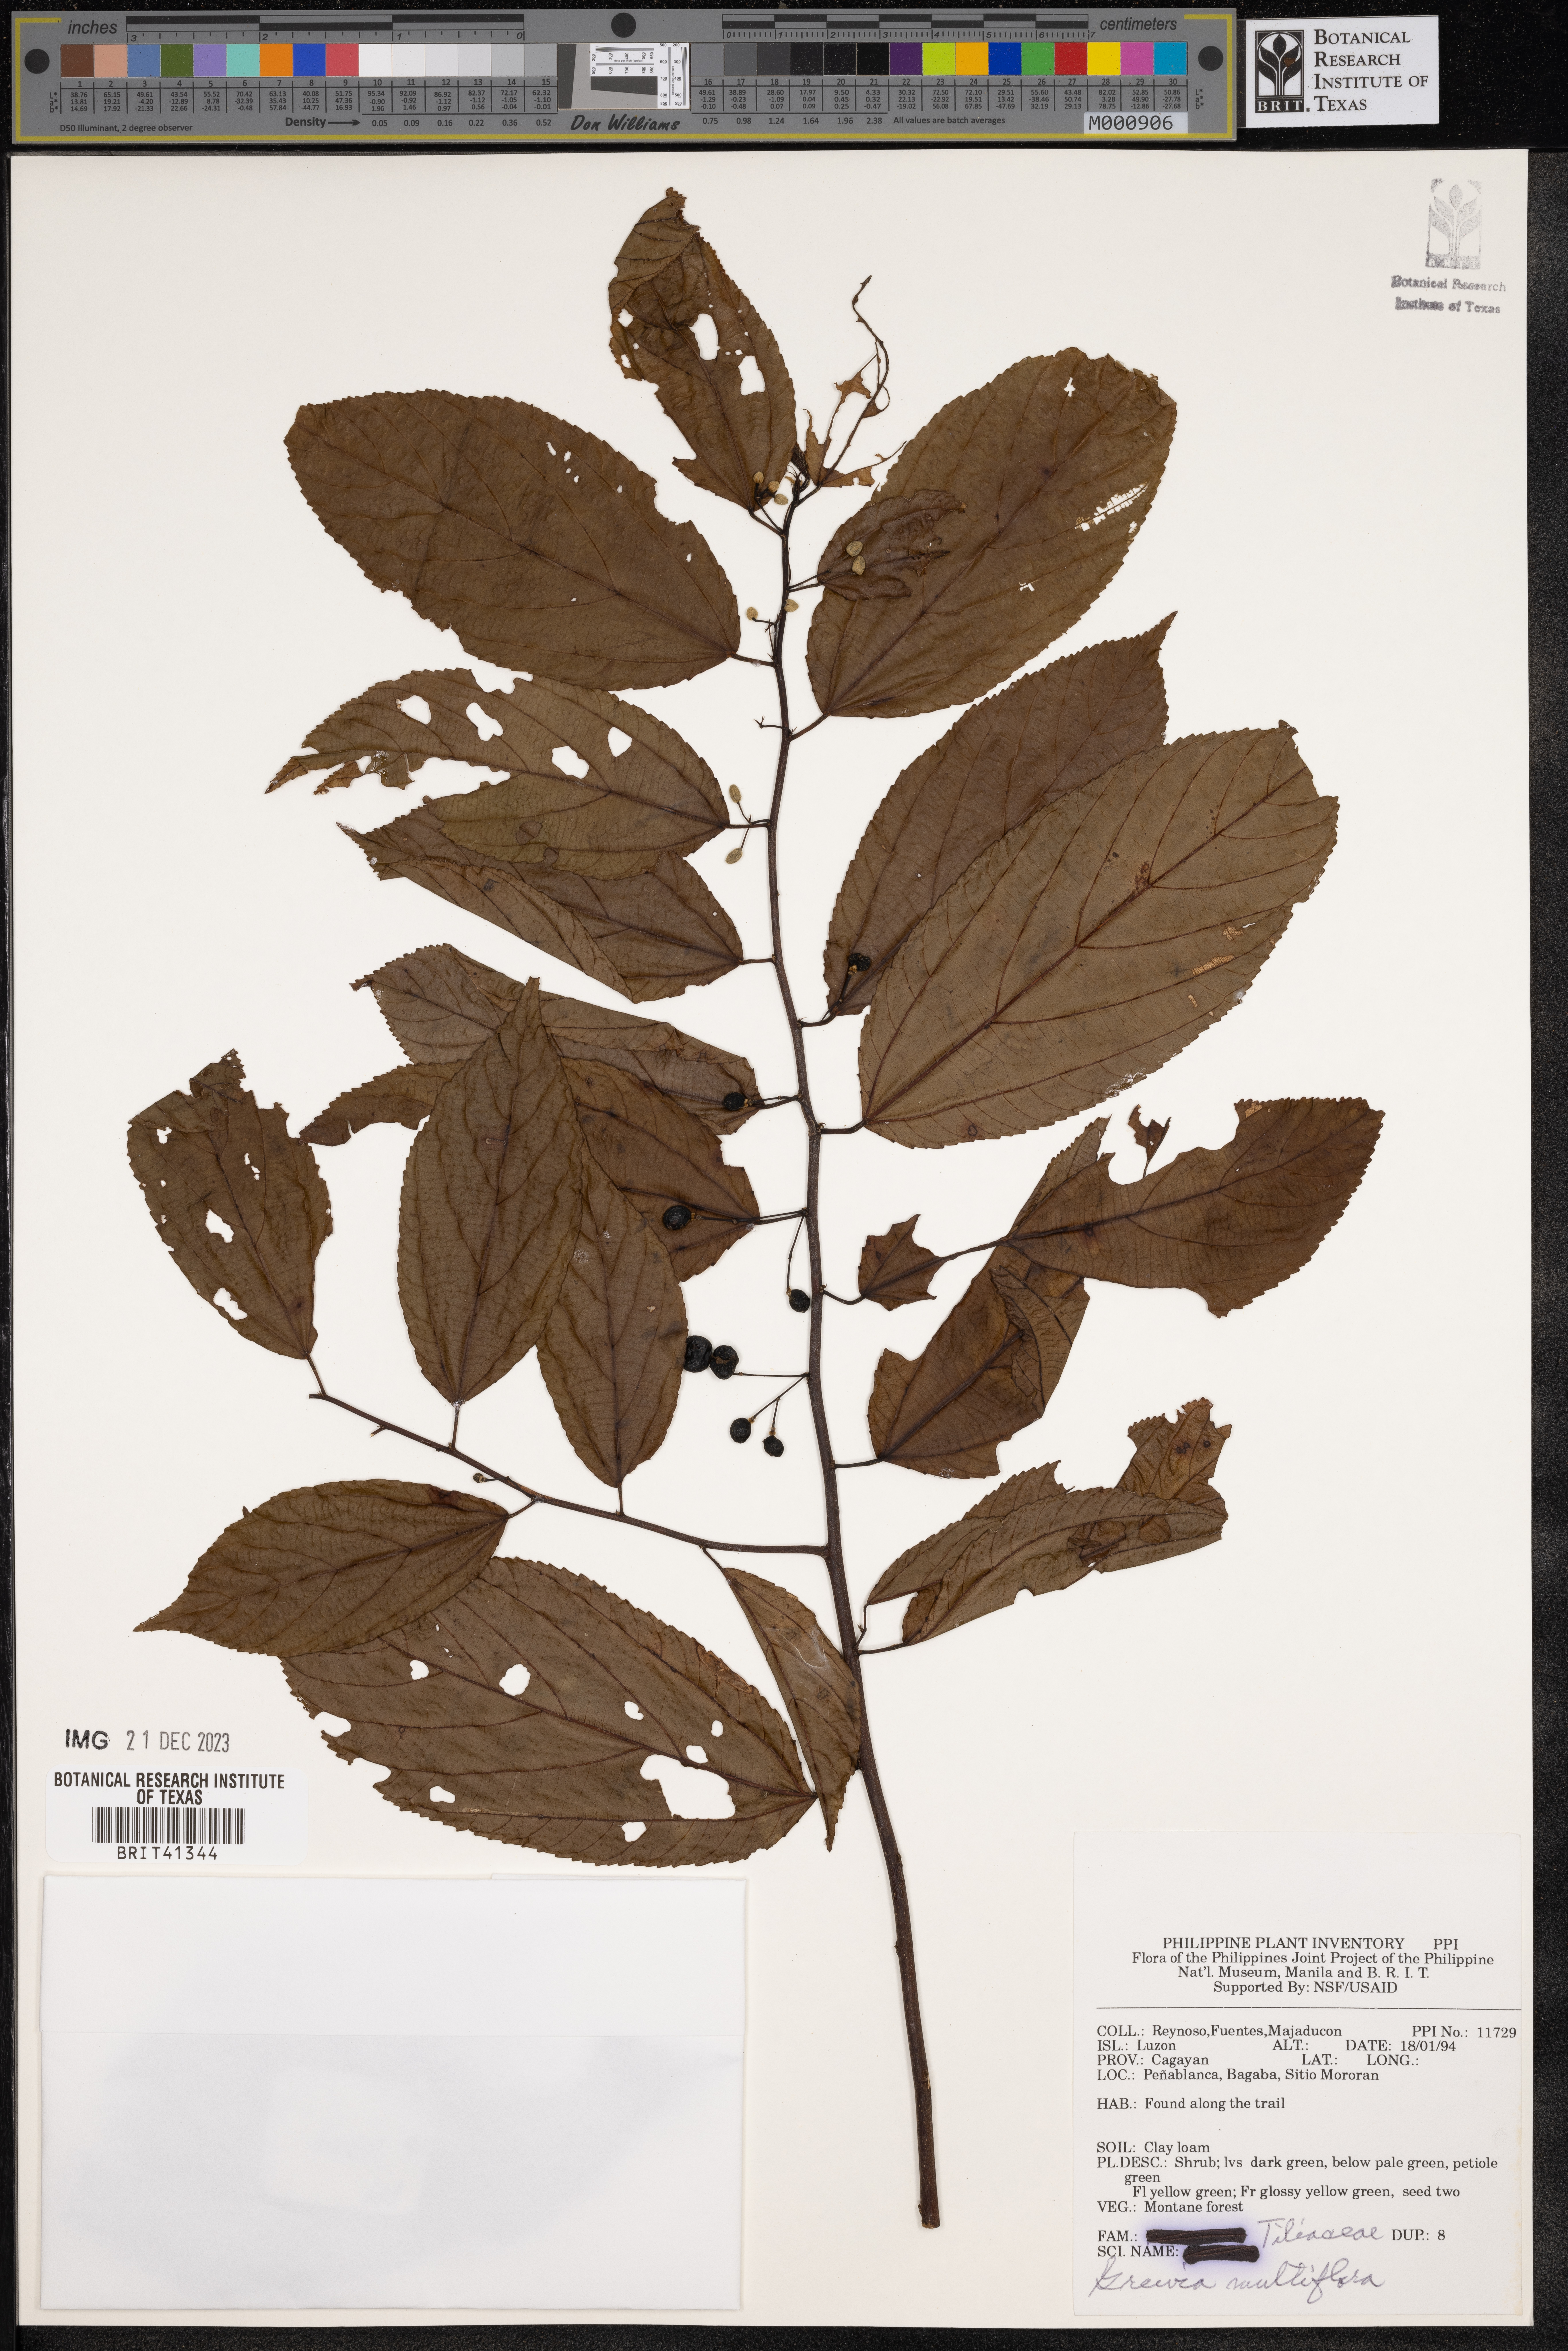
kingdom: Plantae
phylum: Tracheophyta
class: Magnoliopsida
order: Malvales
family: Malvaceae
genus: Grewia
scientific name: Grewia multiflora
